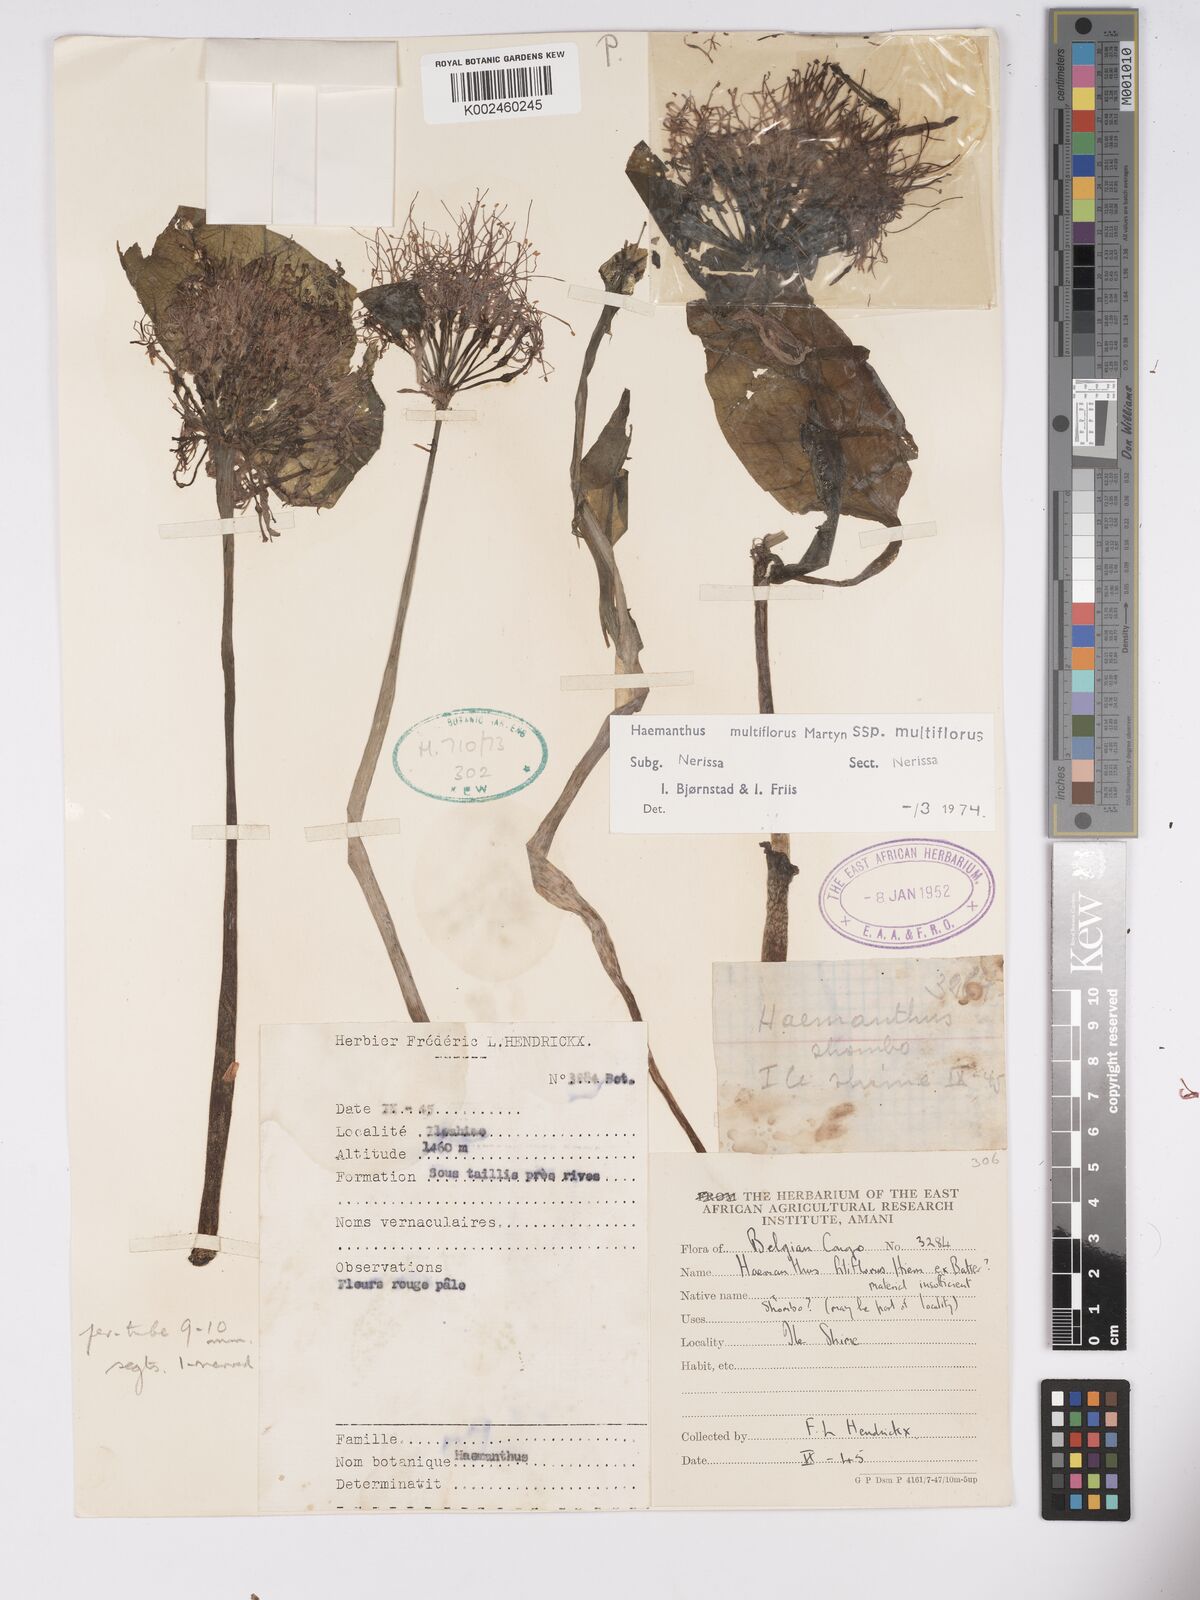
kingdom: Plantae
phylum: Tracheophyta
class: Liliopsida
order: Asparagales
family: Amaryllidaceae
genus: Scadoxus
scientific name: Scadoxus multiflorus
